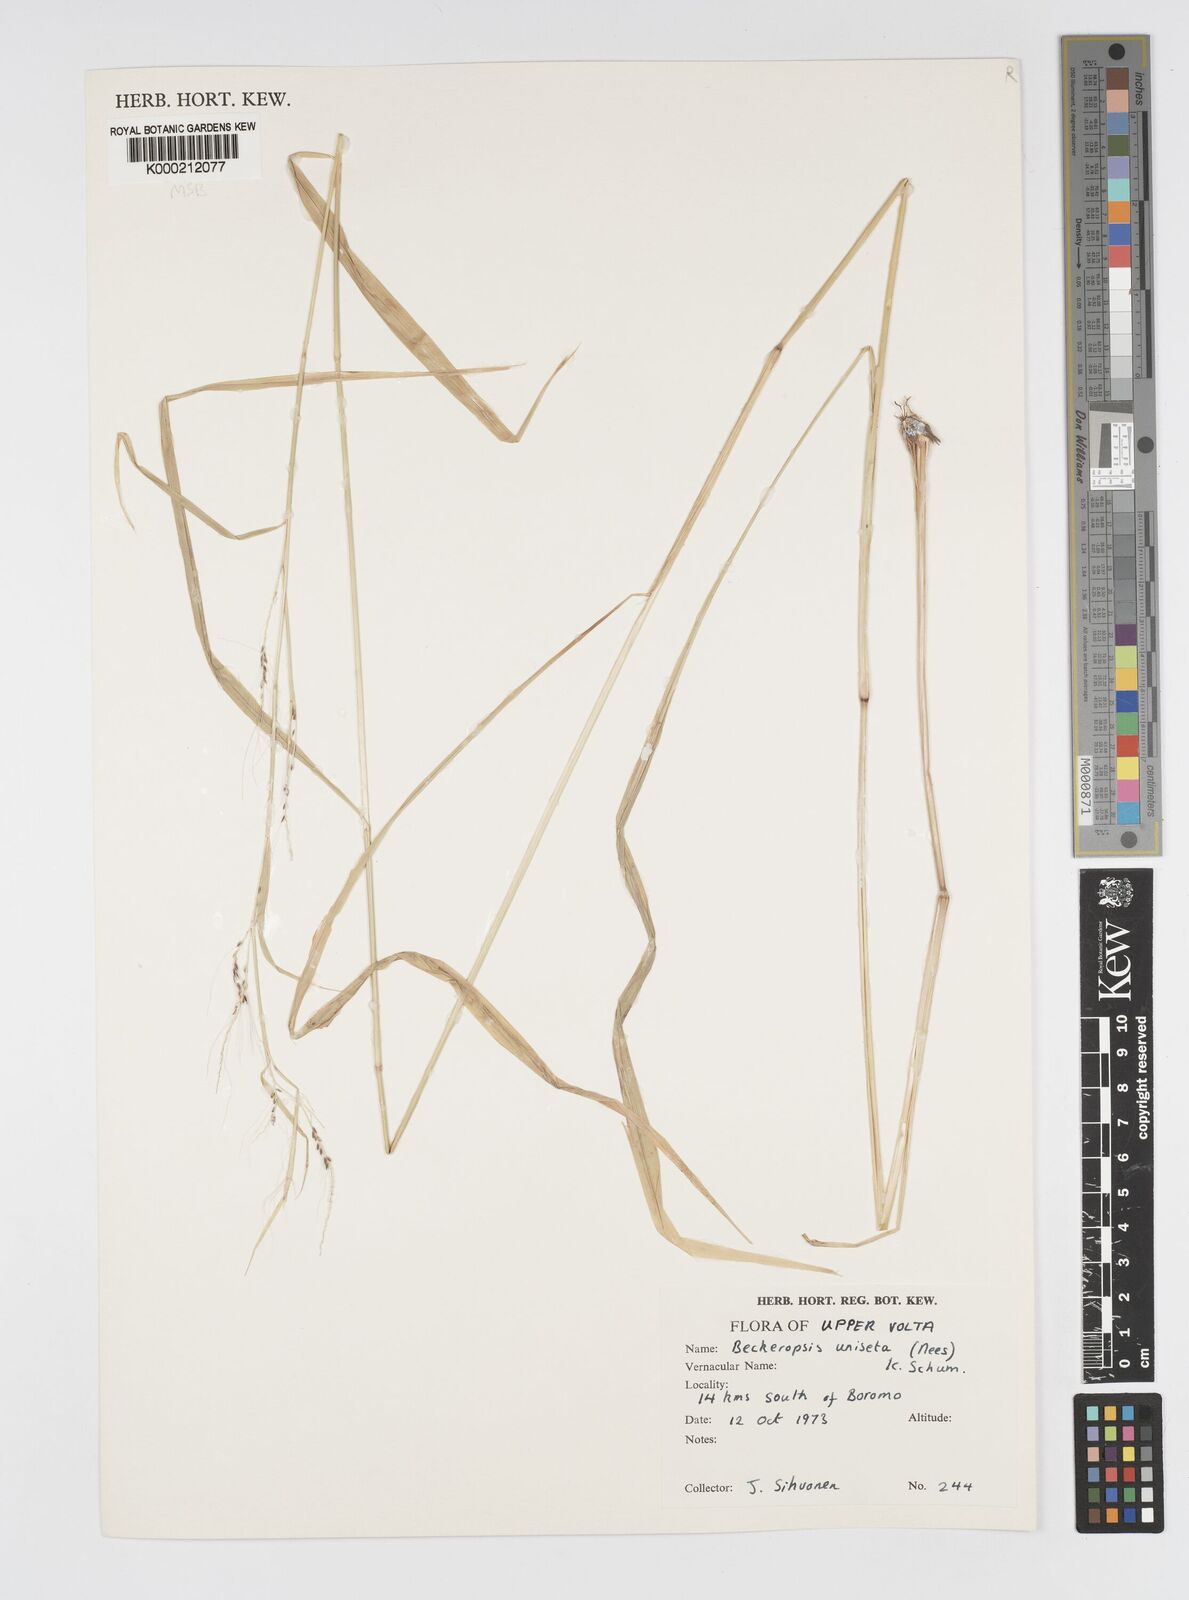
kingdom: Plantae
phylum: Tracheophyta
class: Liliopsida
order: Poales
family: Poaceae
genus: Cenchrus
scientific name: Cenchrus unisetus
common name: Natal grass
